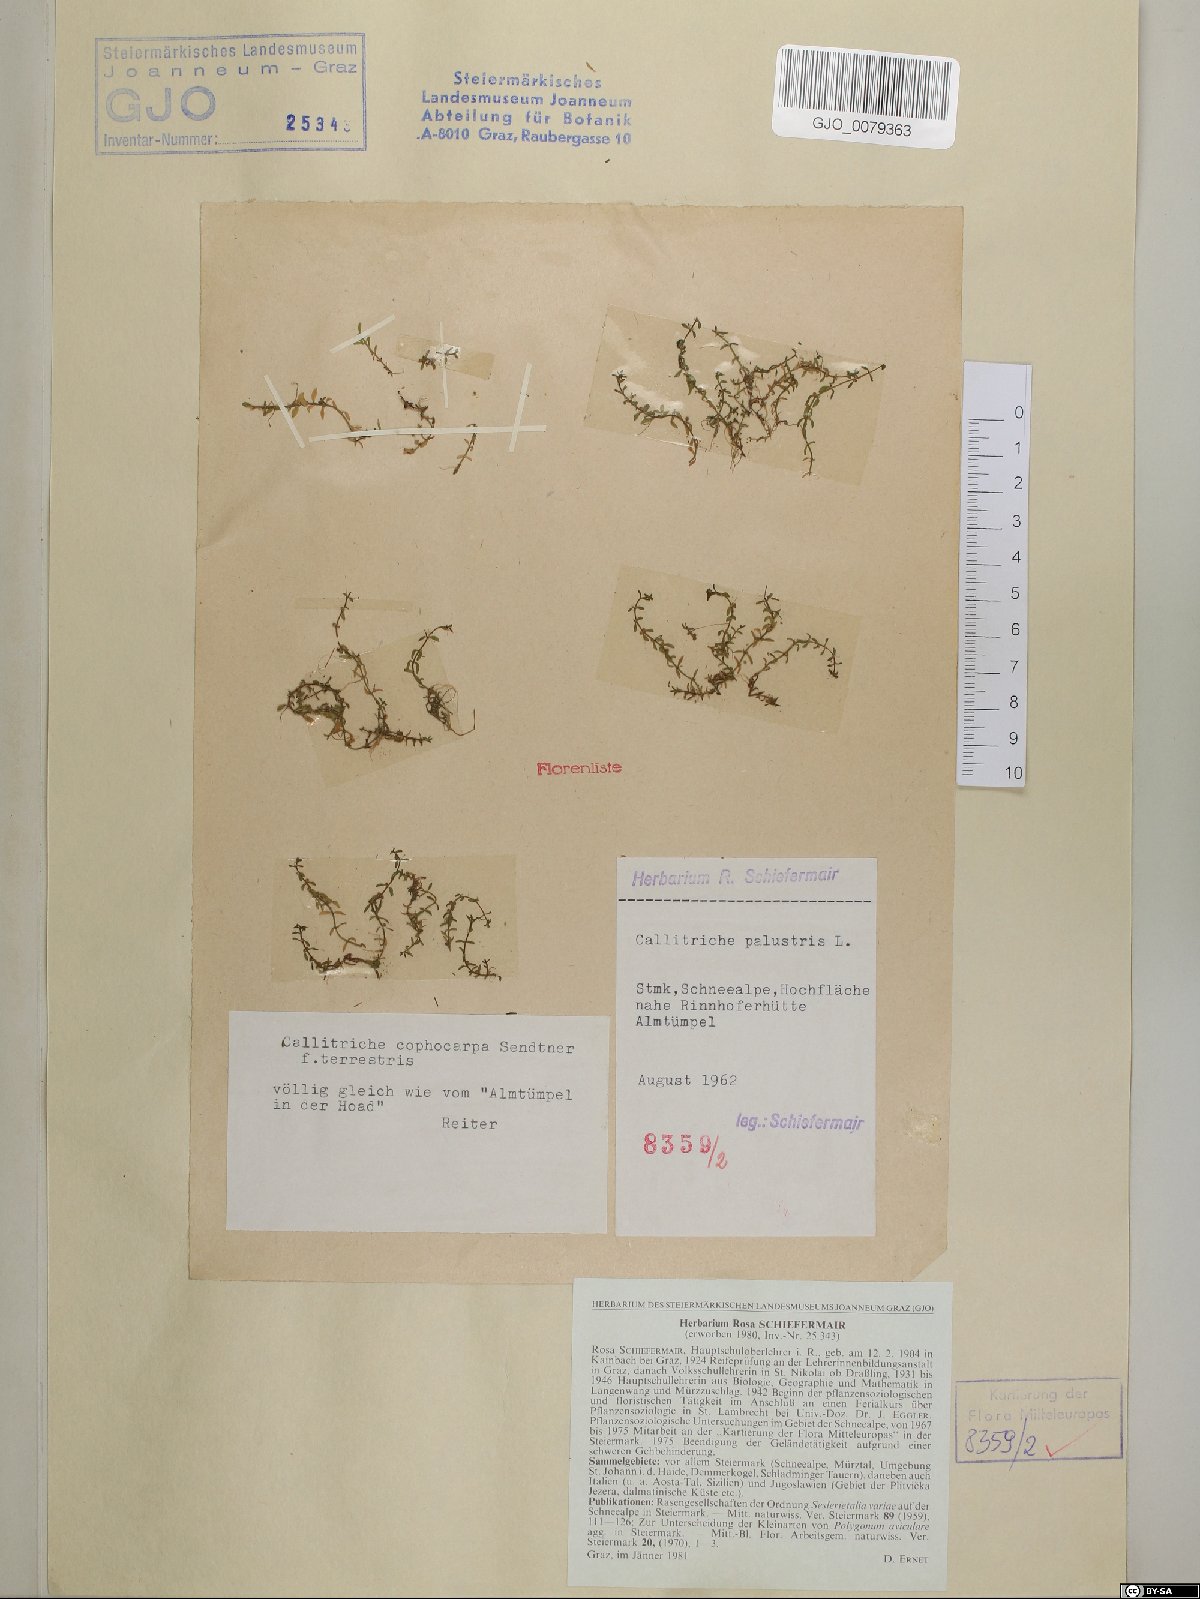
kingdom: Plantae
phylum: Tracheophyta
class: Magnoliopsida
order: Lamiales
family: Plantaginaceae
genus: Callitriche
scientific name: Callitriche cophocarpa
